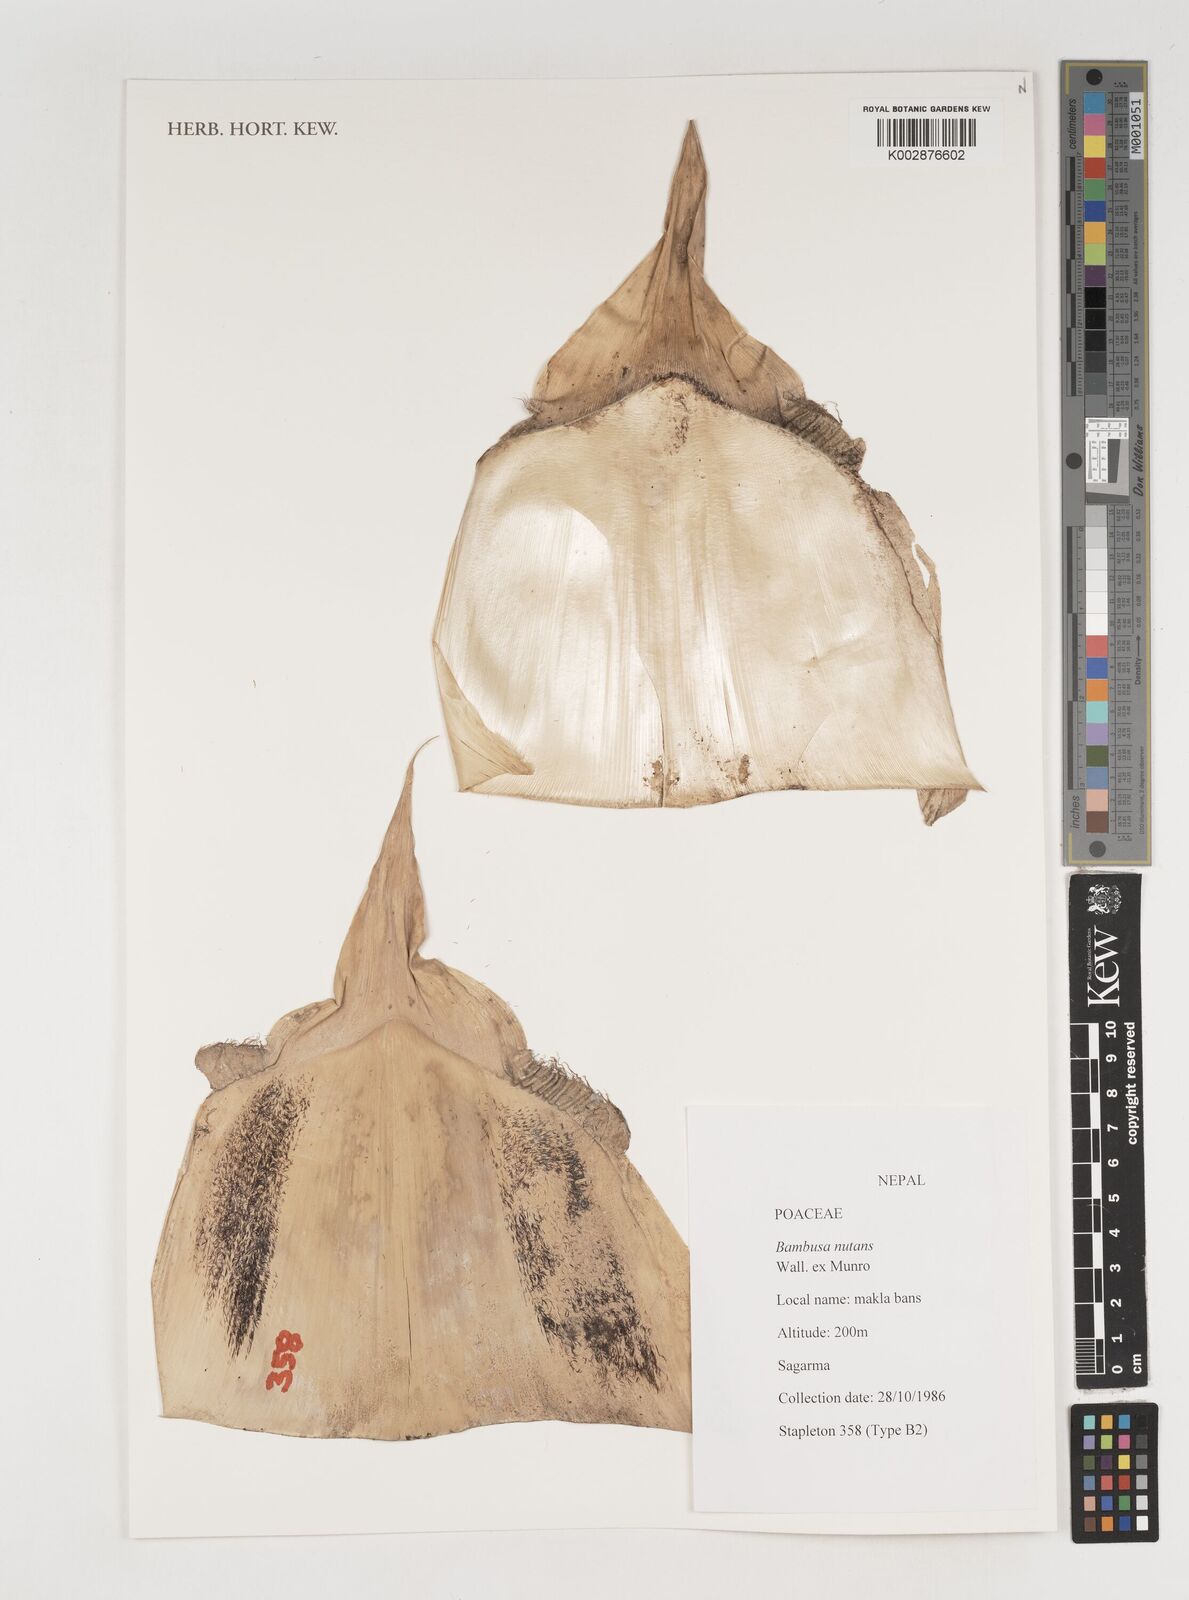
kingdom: Plantae
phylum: Tracheophyta
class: Liliopsida
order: Poales
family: Poaceae
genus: Bambusa
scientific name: Bambusa nutans
